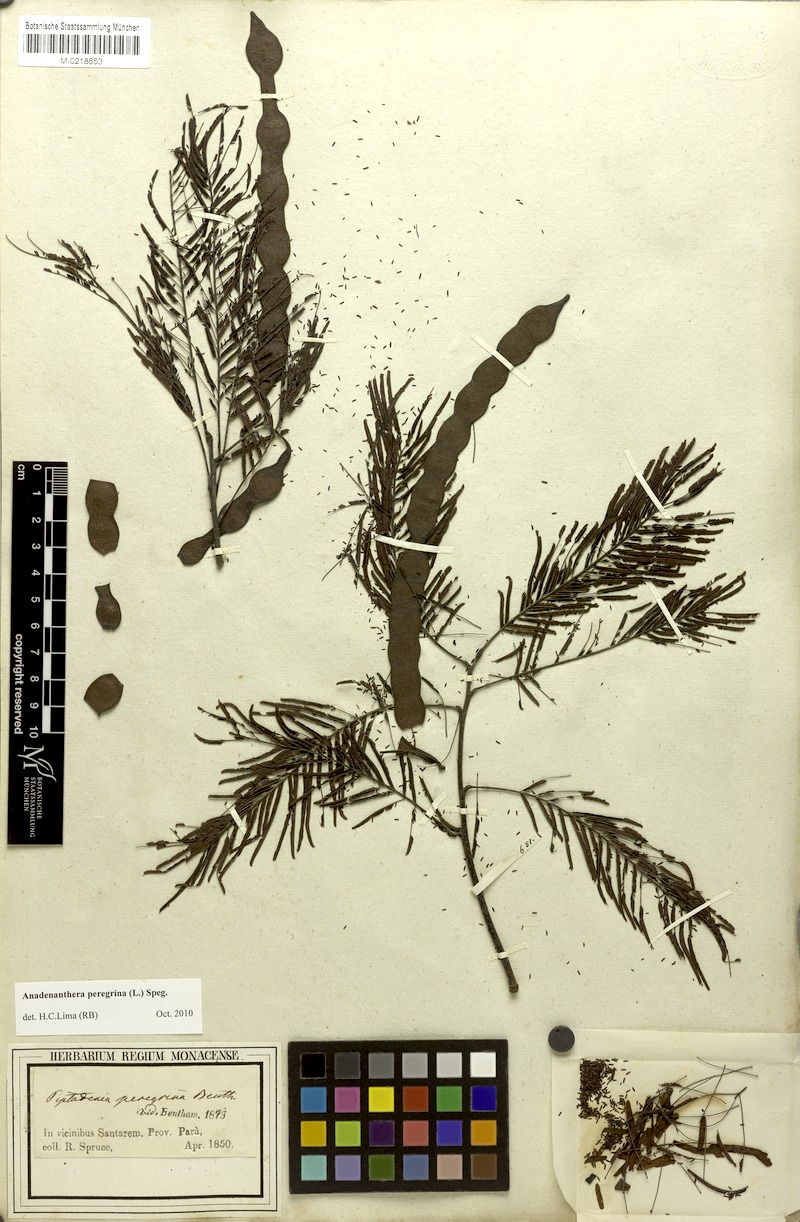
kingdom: Plantae
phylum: Tracheophyta
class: Magnoliopsida
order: Fabales
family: Fabaceae
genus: Anadenanthera
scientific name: Anadenanthera peregrina
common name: Cohoba
